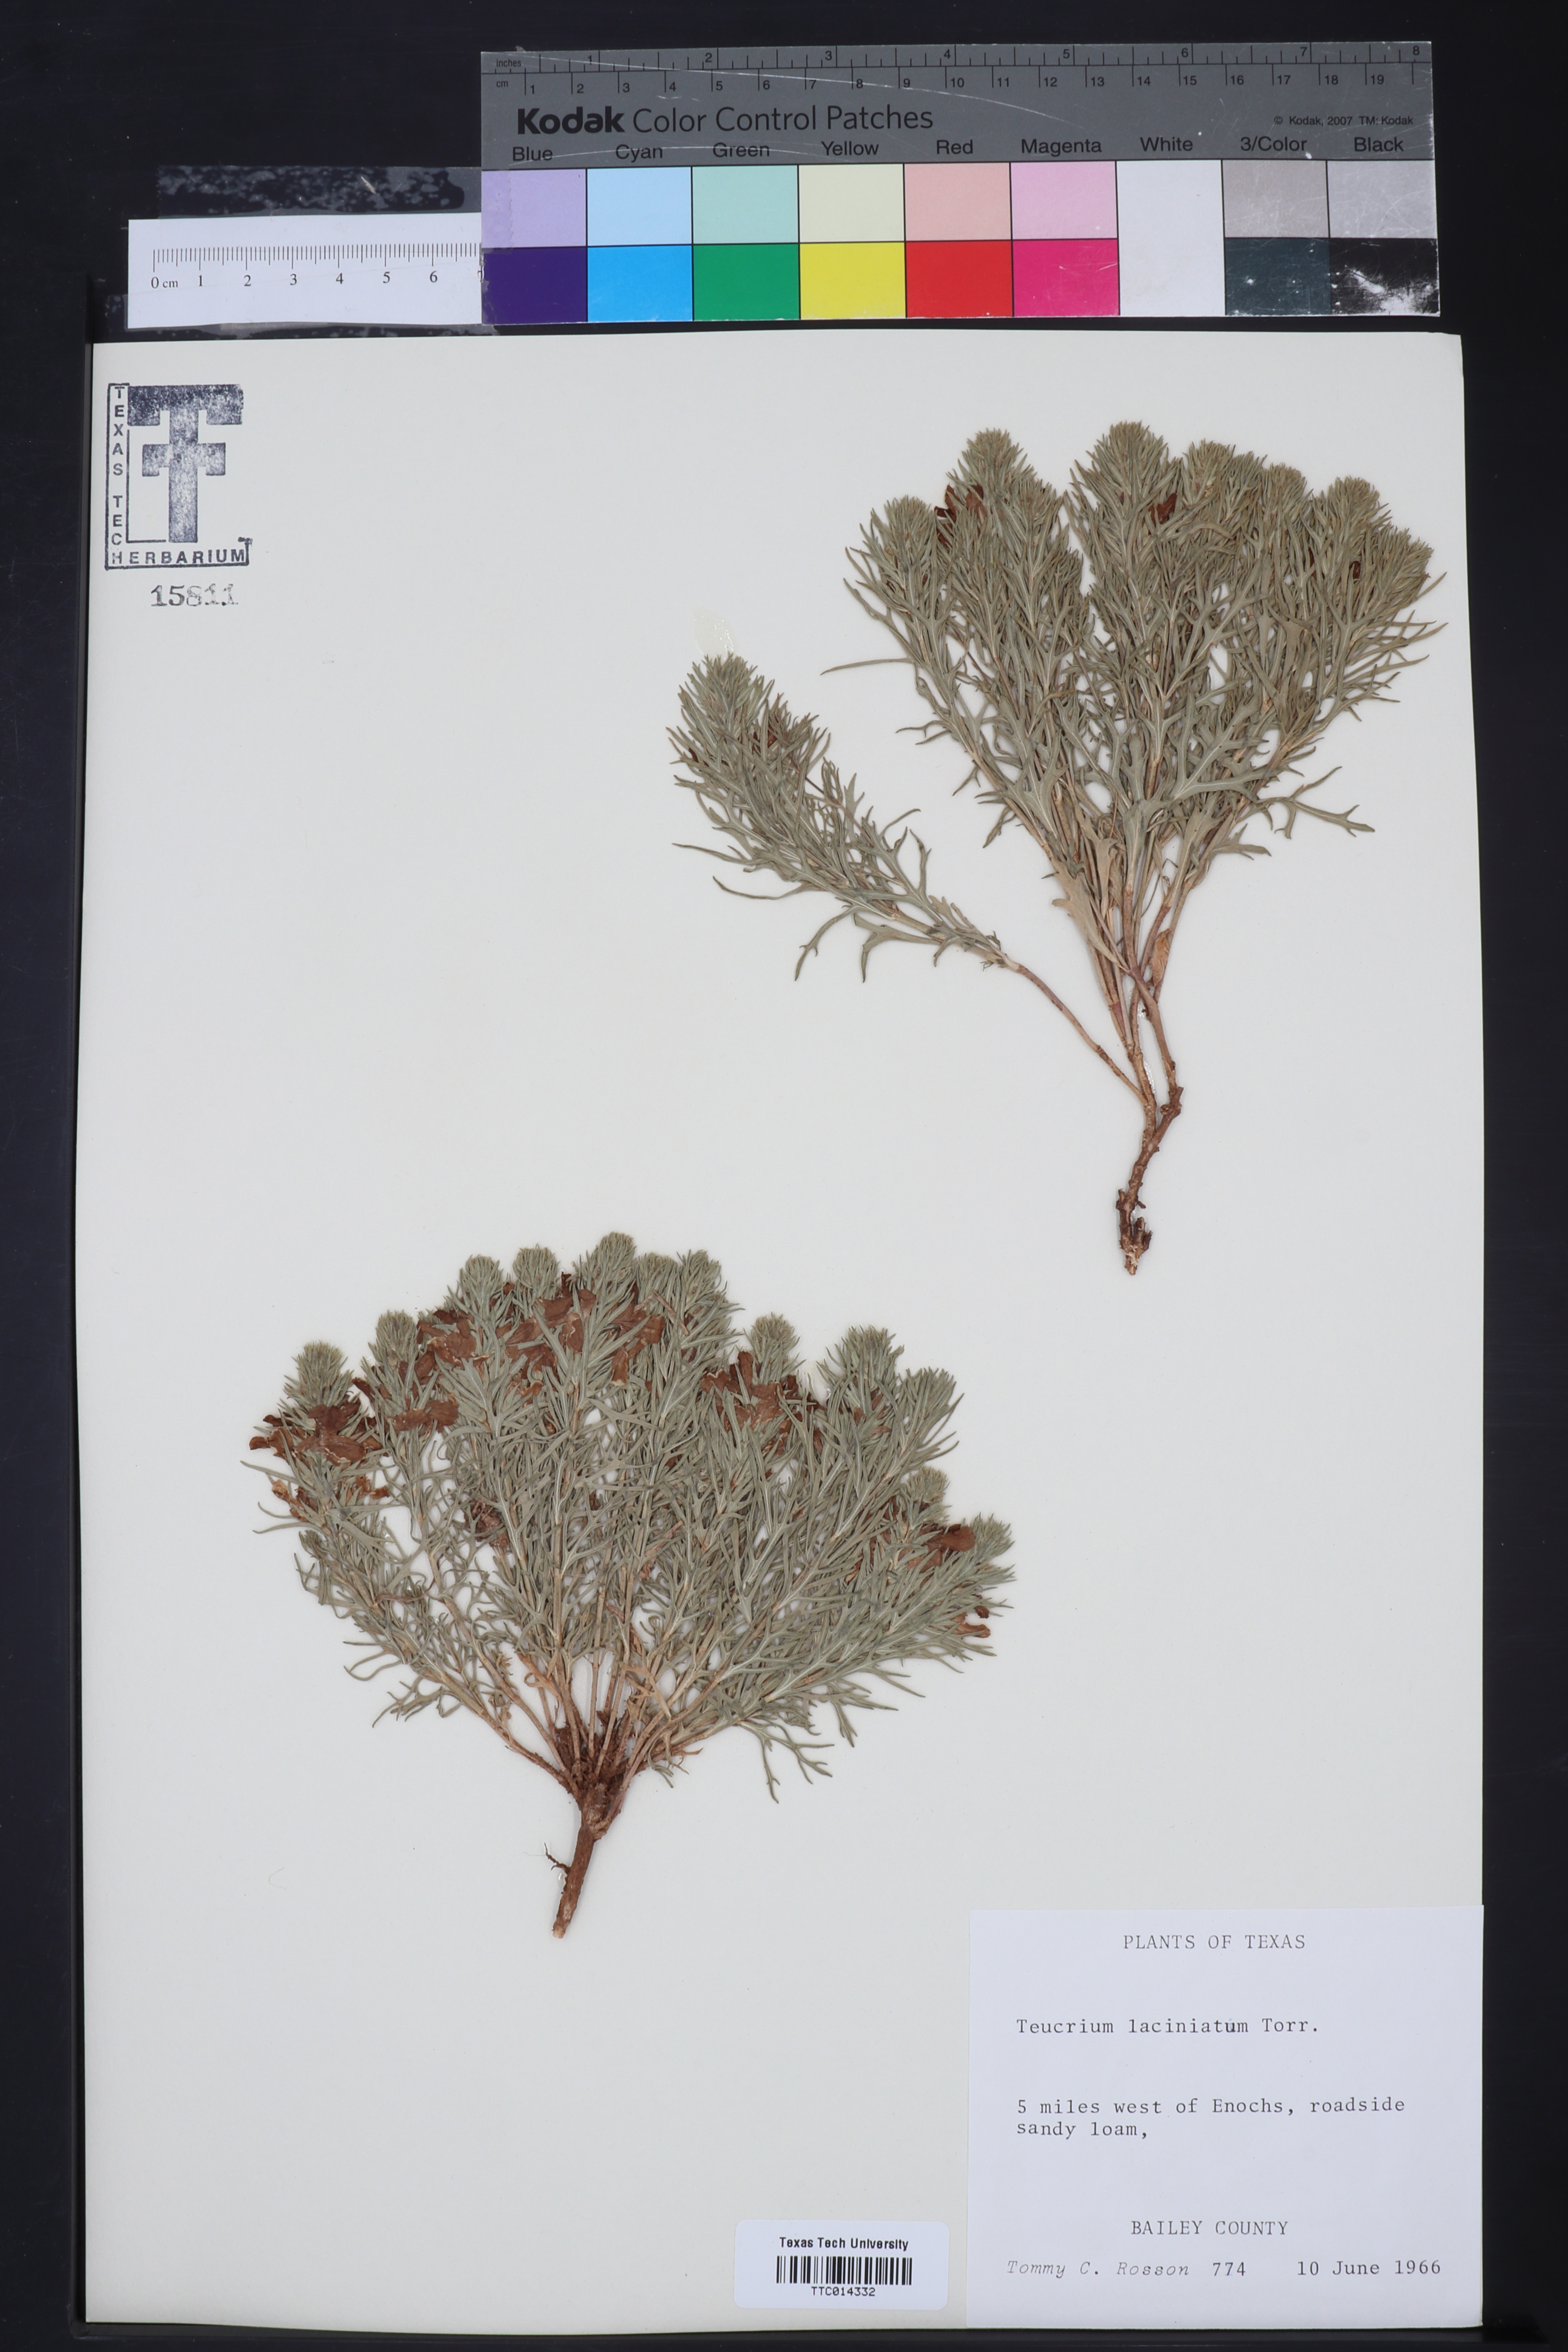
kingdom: Plantae
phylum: Tracheophyta
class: Magnoliopsida
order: Lamiales
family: Lamiaceae
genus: Teucrium
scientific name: Teucrium laciniatum
